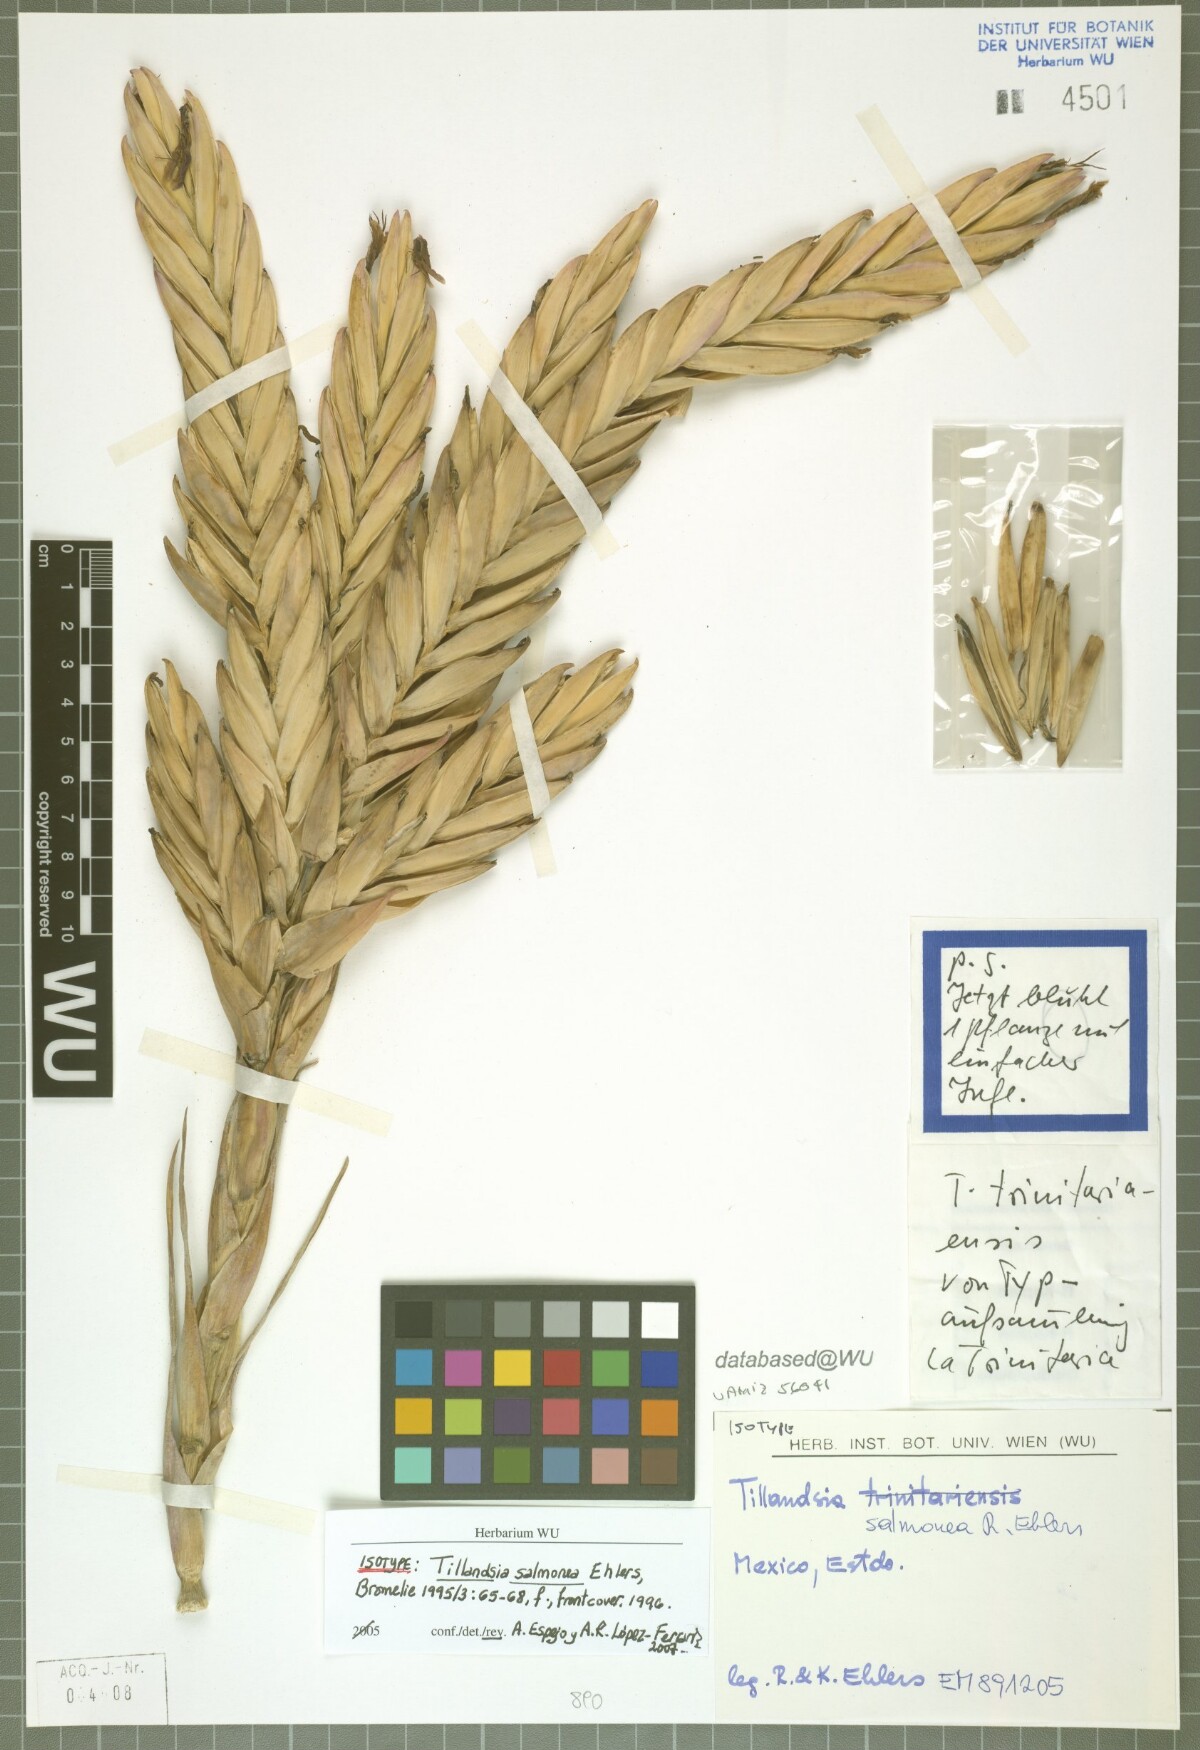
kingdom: Plantae
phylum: Tracheophyta
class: Liliopsida
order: Poales
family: Bromeliaceae
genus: Tillandsia
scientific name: Tillandsia salmonea
